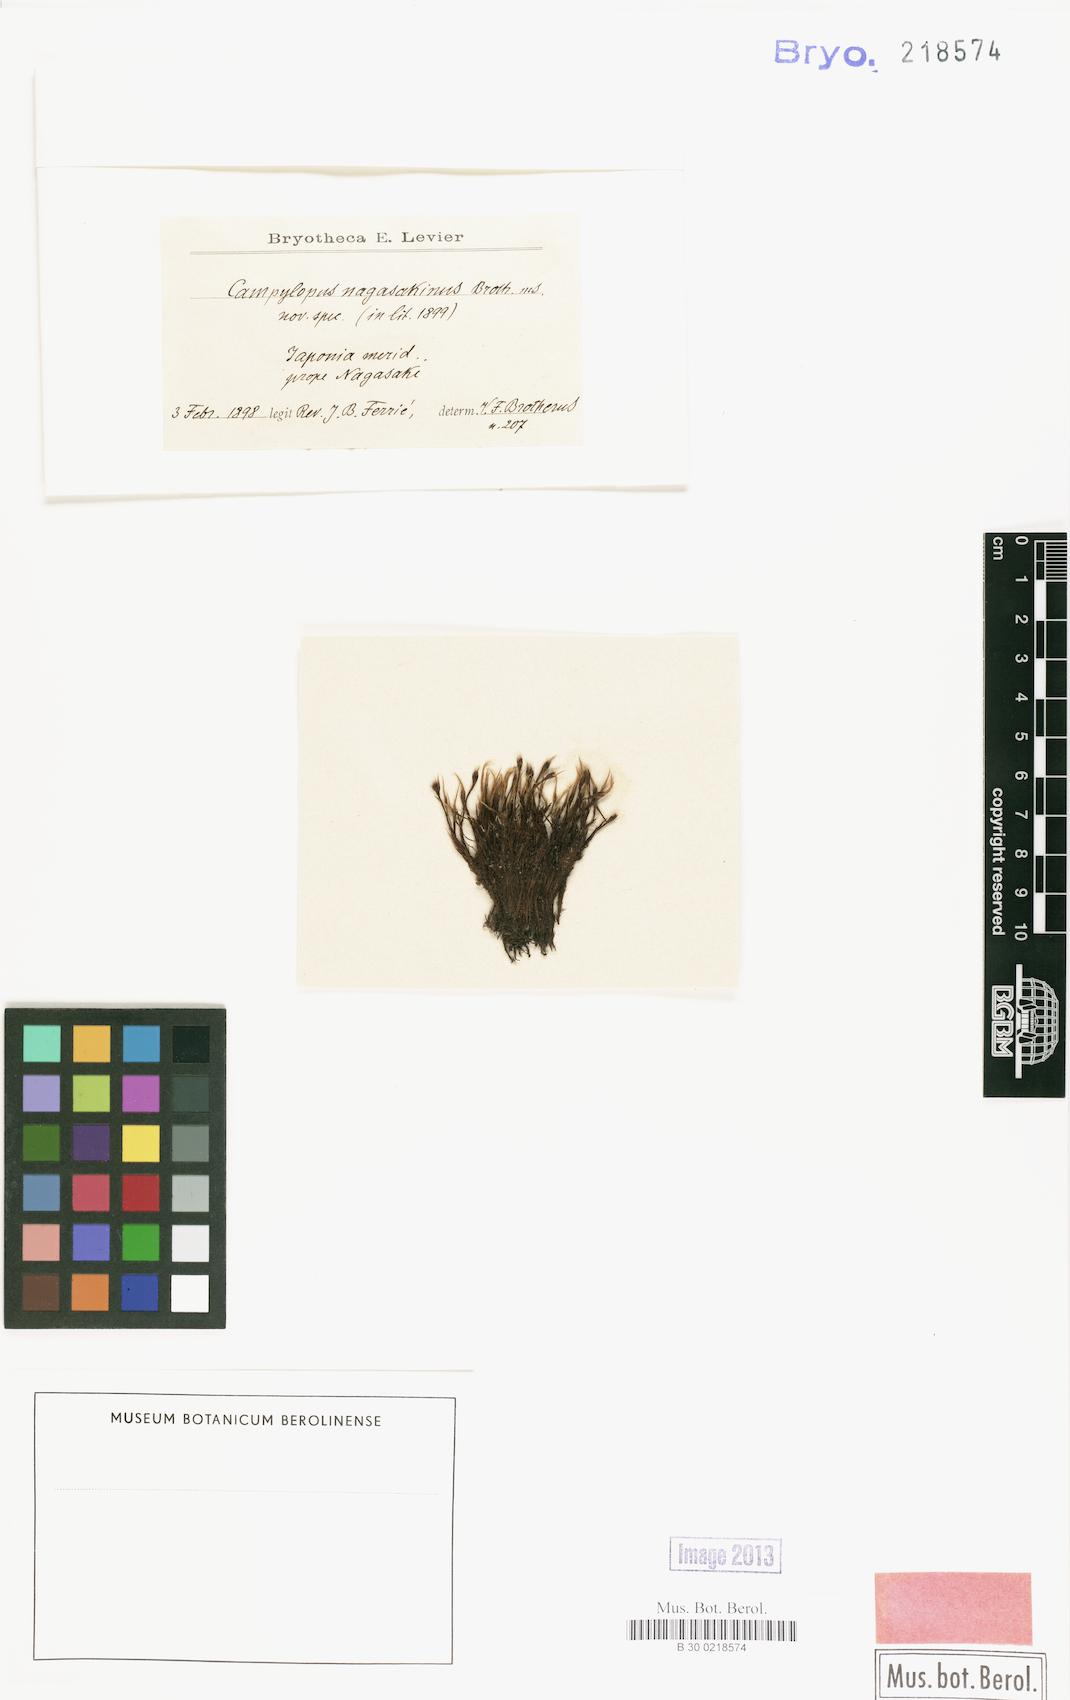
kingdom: Plantae
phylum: Bryophyta
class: Bryopsida
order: Dicranales
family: Dicranaceae
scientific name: Dicranaceae
